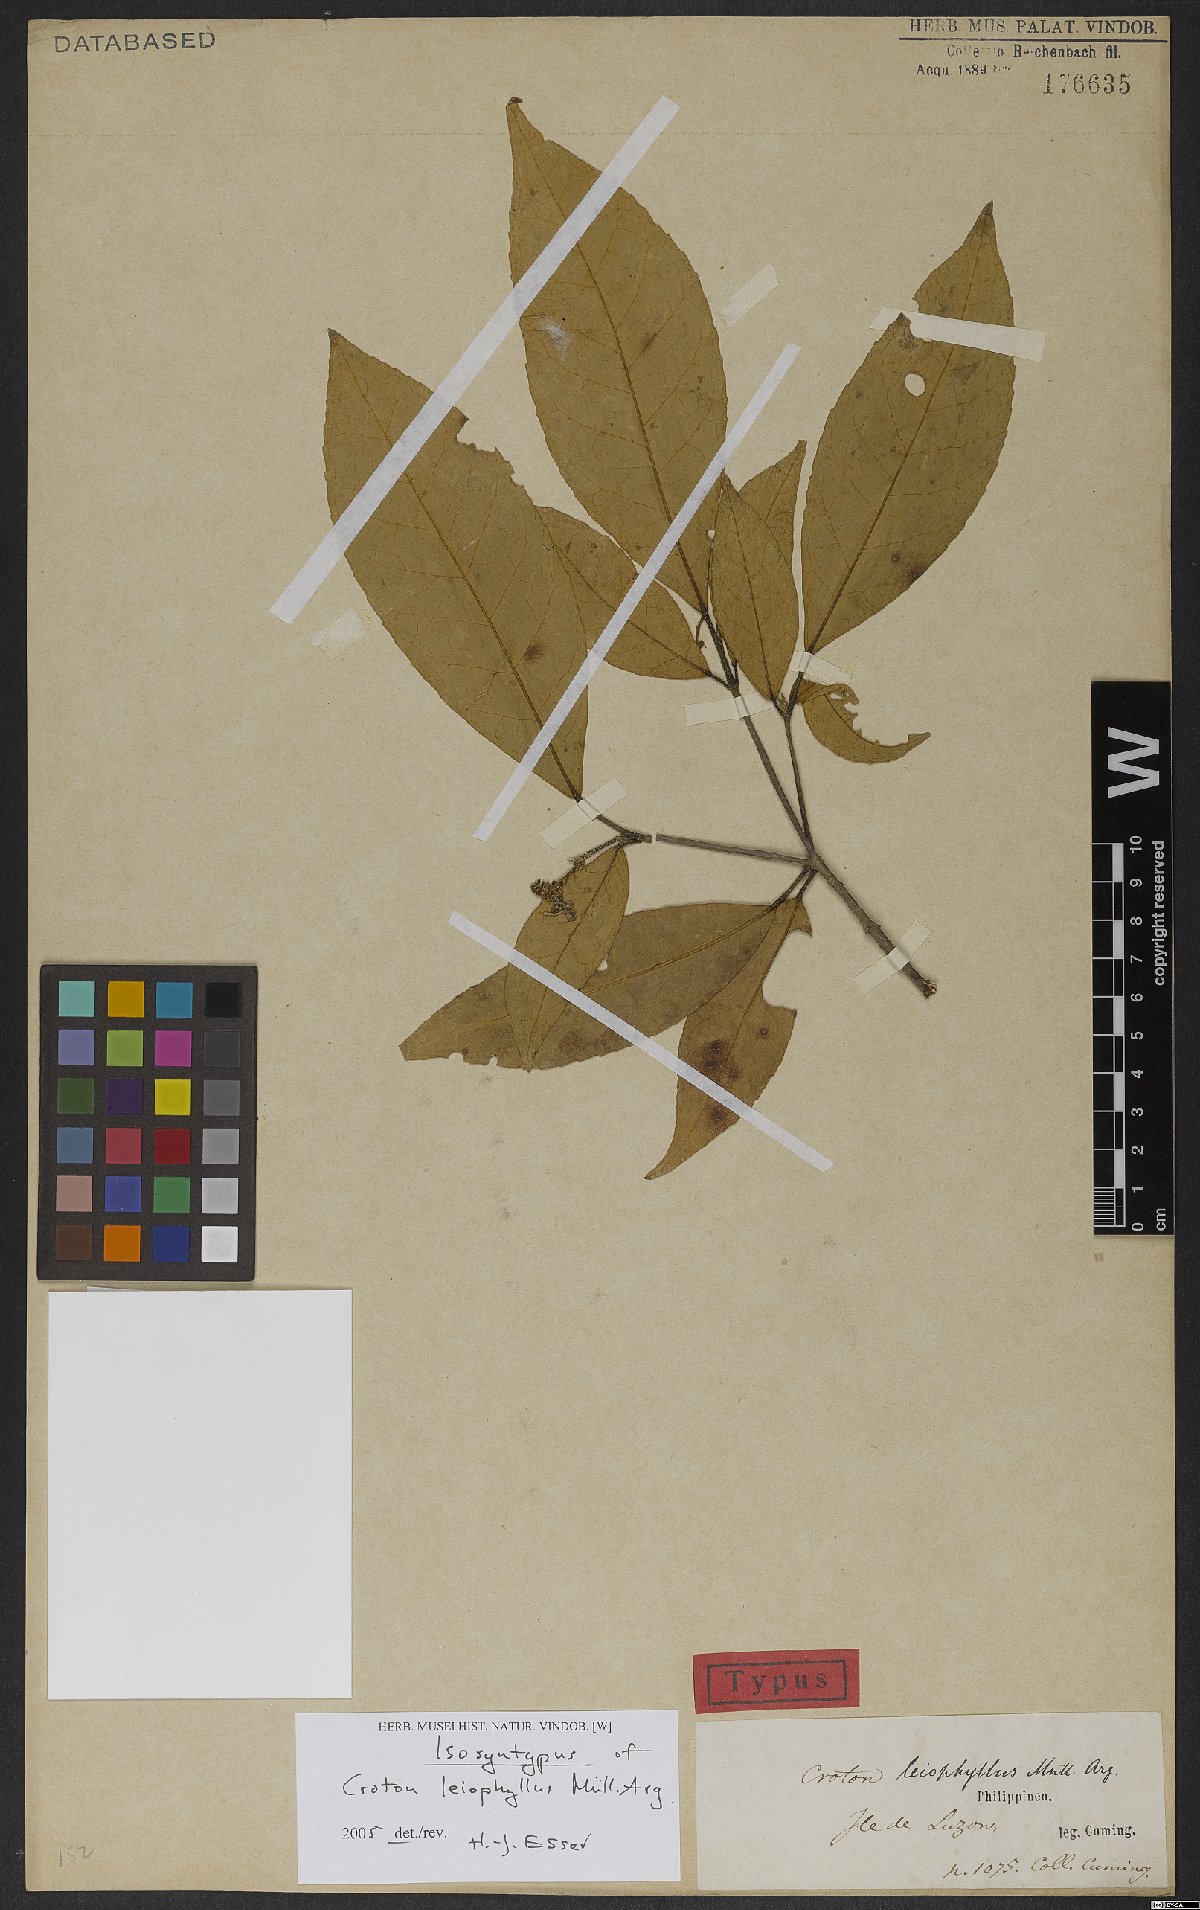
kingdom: Plantae
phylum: Tracheophyta
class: Magnoliopsida
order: Malpighiales
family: Euphorbiaceae
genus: Croton
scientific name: Croton leiophyllus
